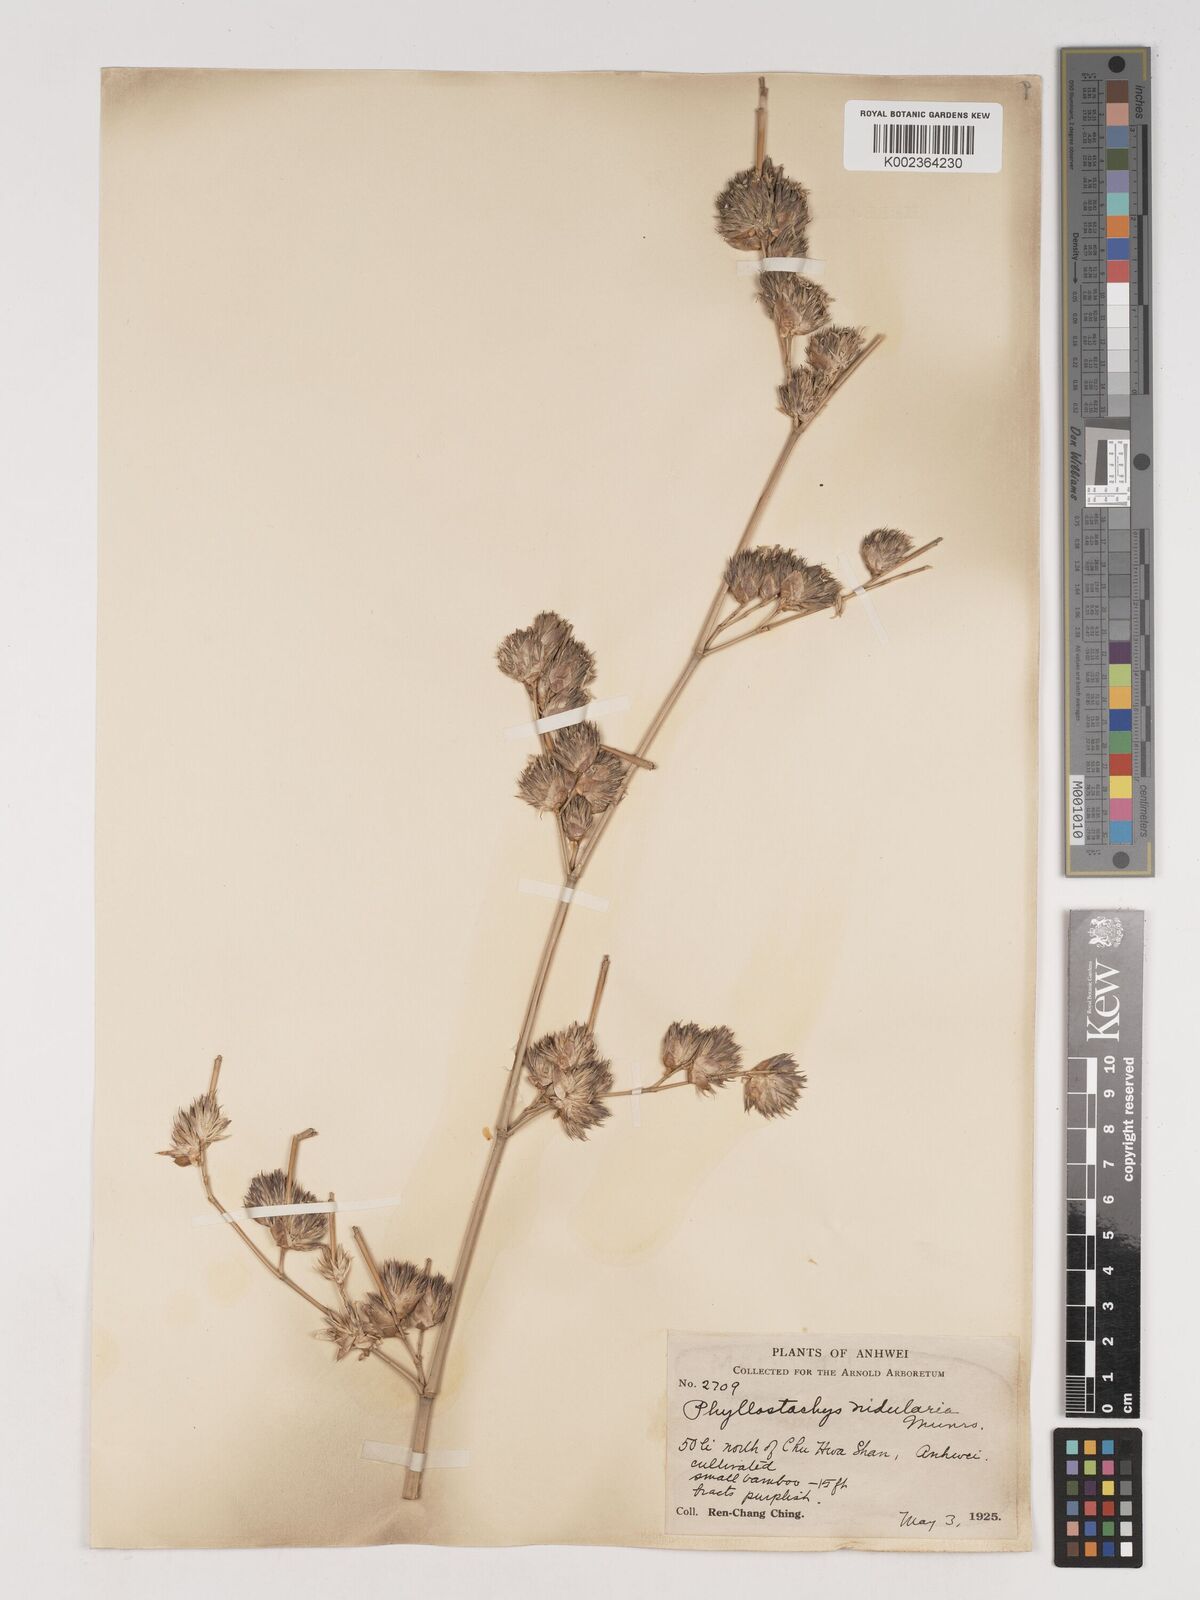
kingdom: Plantae
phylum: Tracheophyta
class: Liliopsida
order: Poales
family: Poaceae
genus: Phyllostachys
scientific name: Phyllostachys nidularia
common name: Broom bamboo
